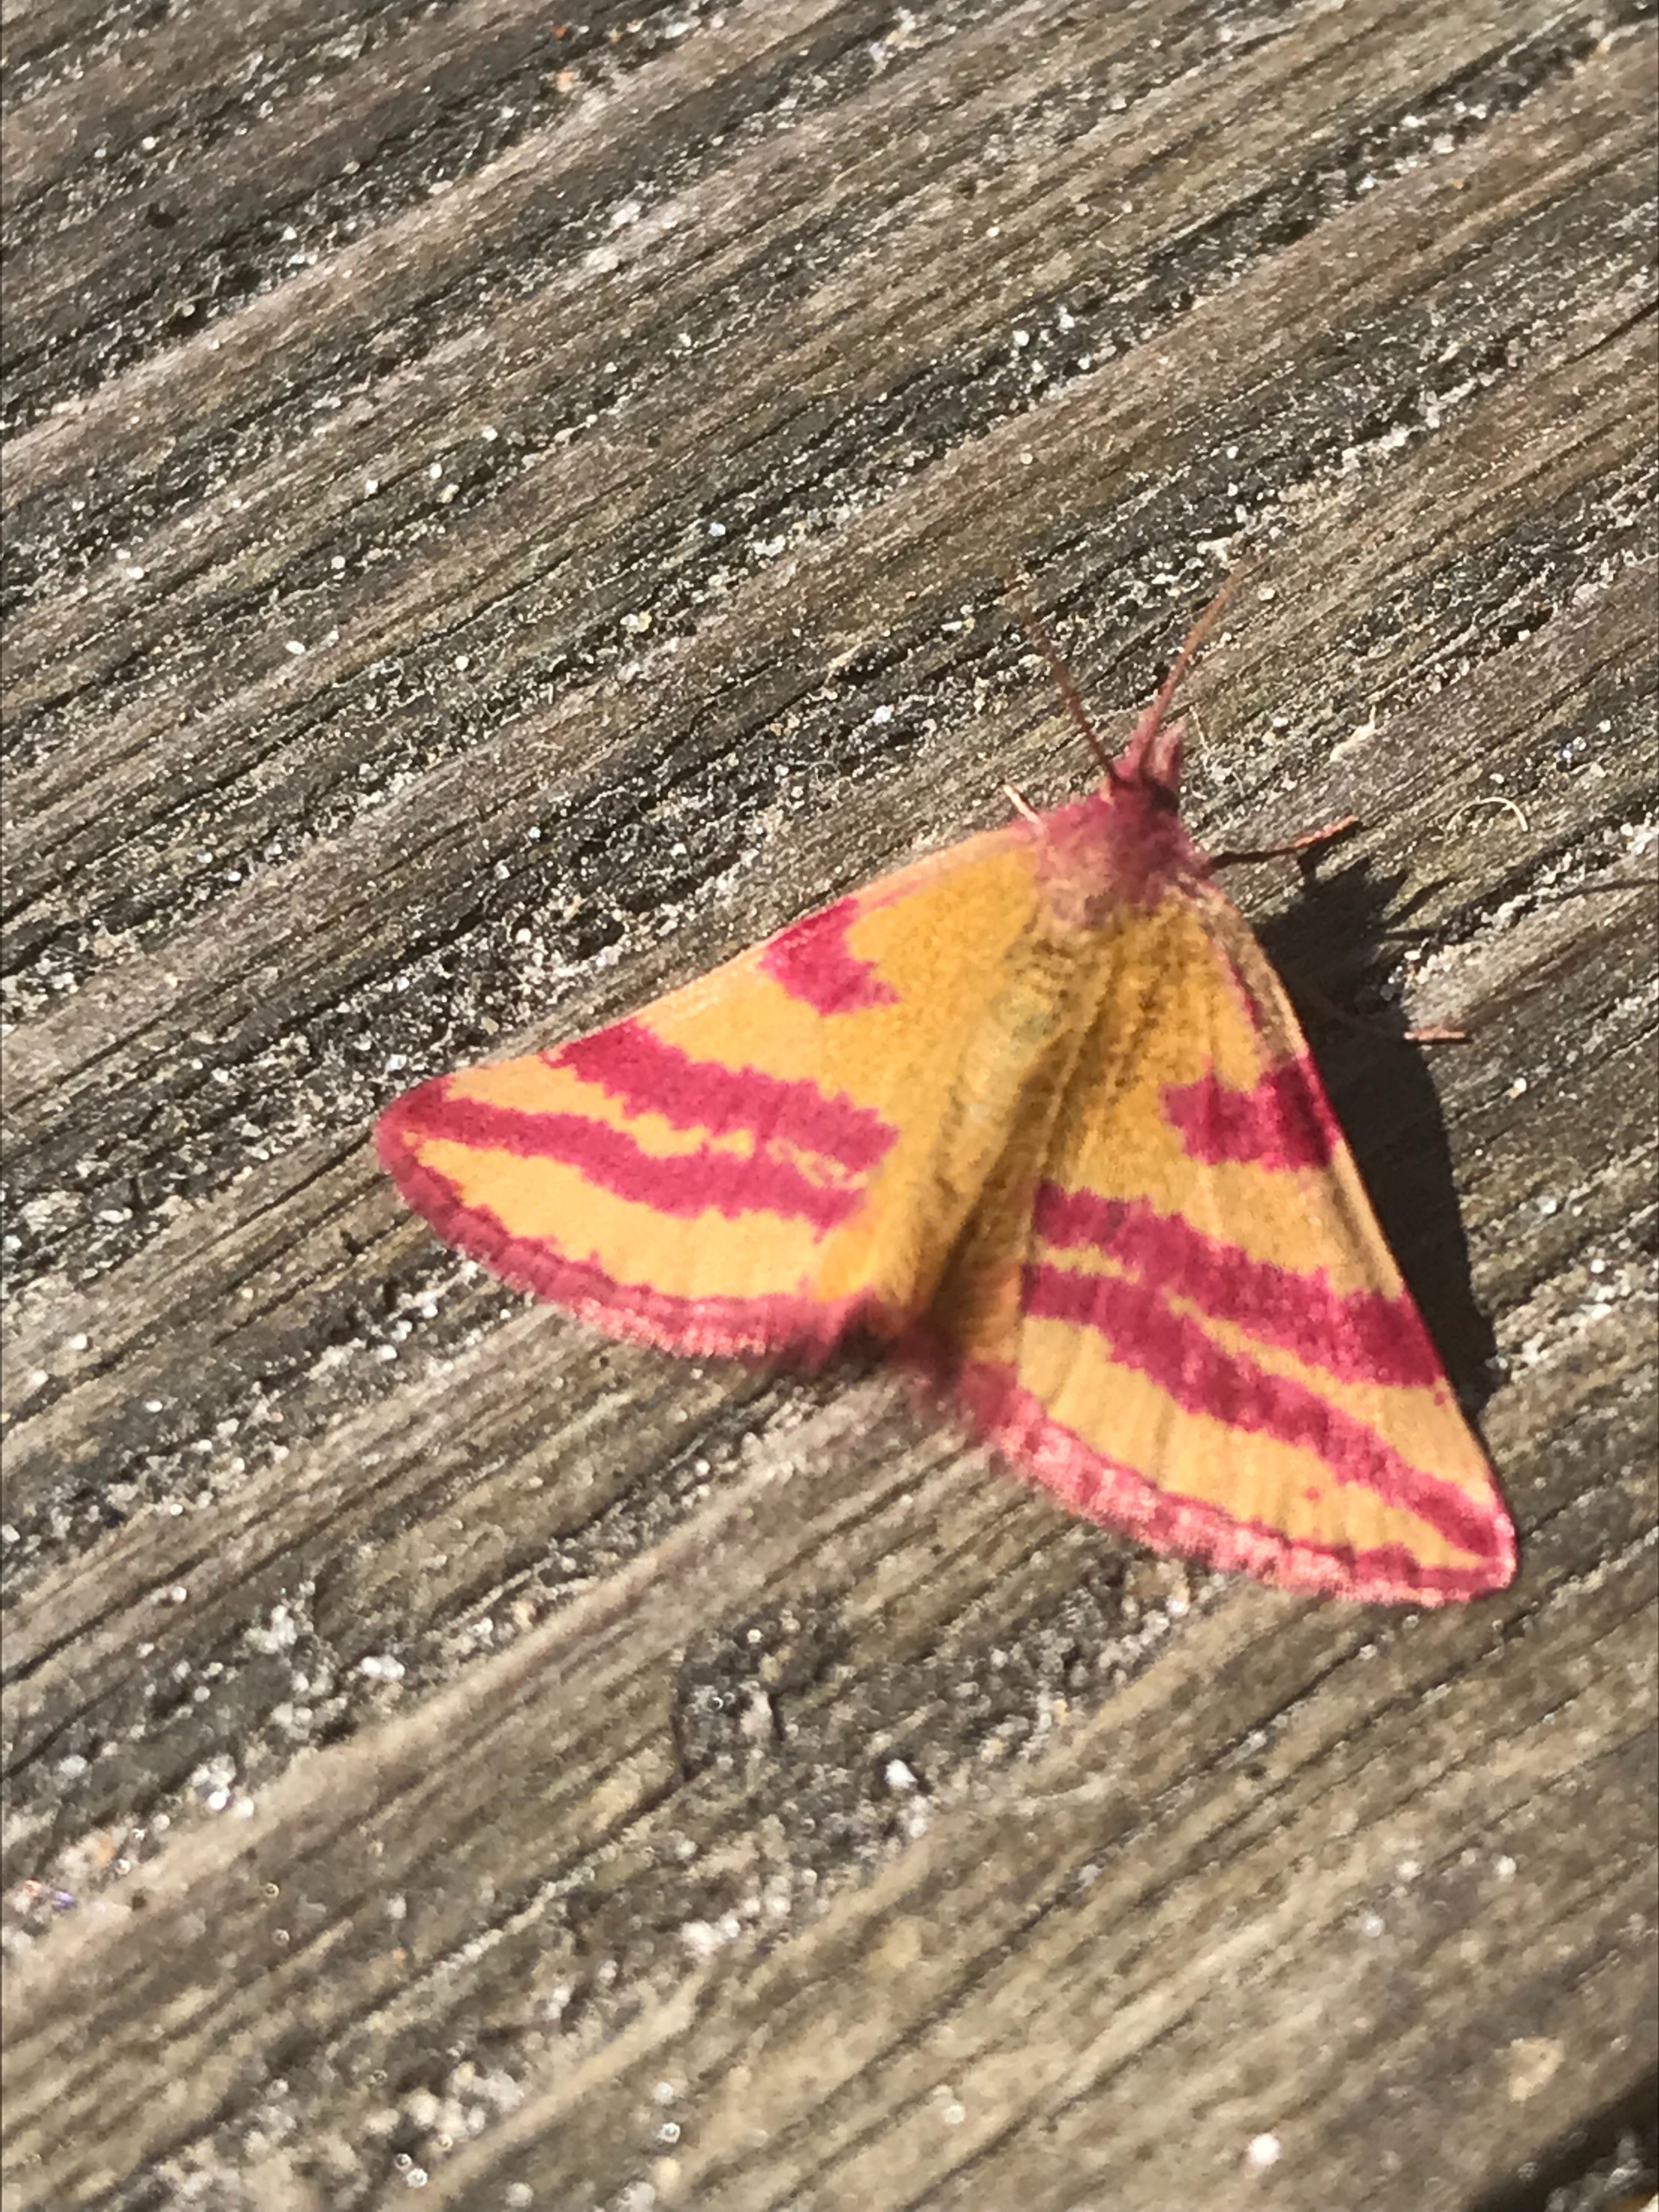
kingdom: Animalia
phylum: Arthropoda
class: Insecta
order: Lepidoptera
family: Geometridae
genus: Lythria
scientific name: Lythria cruentaria
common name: Purpurmåler
